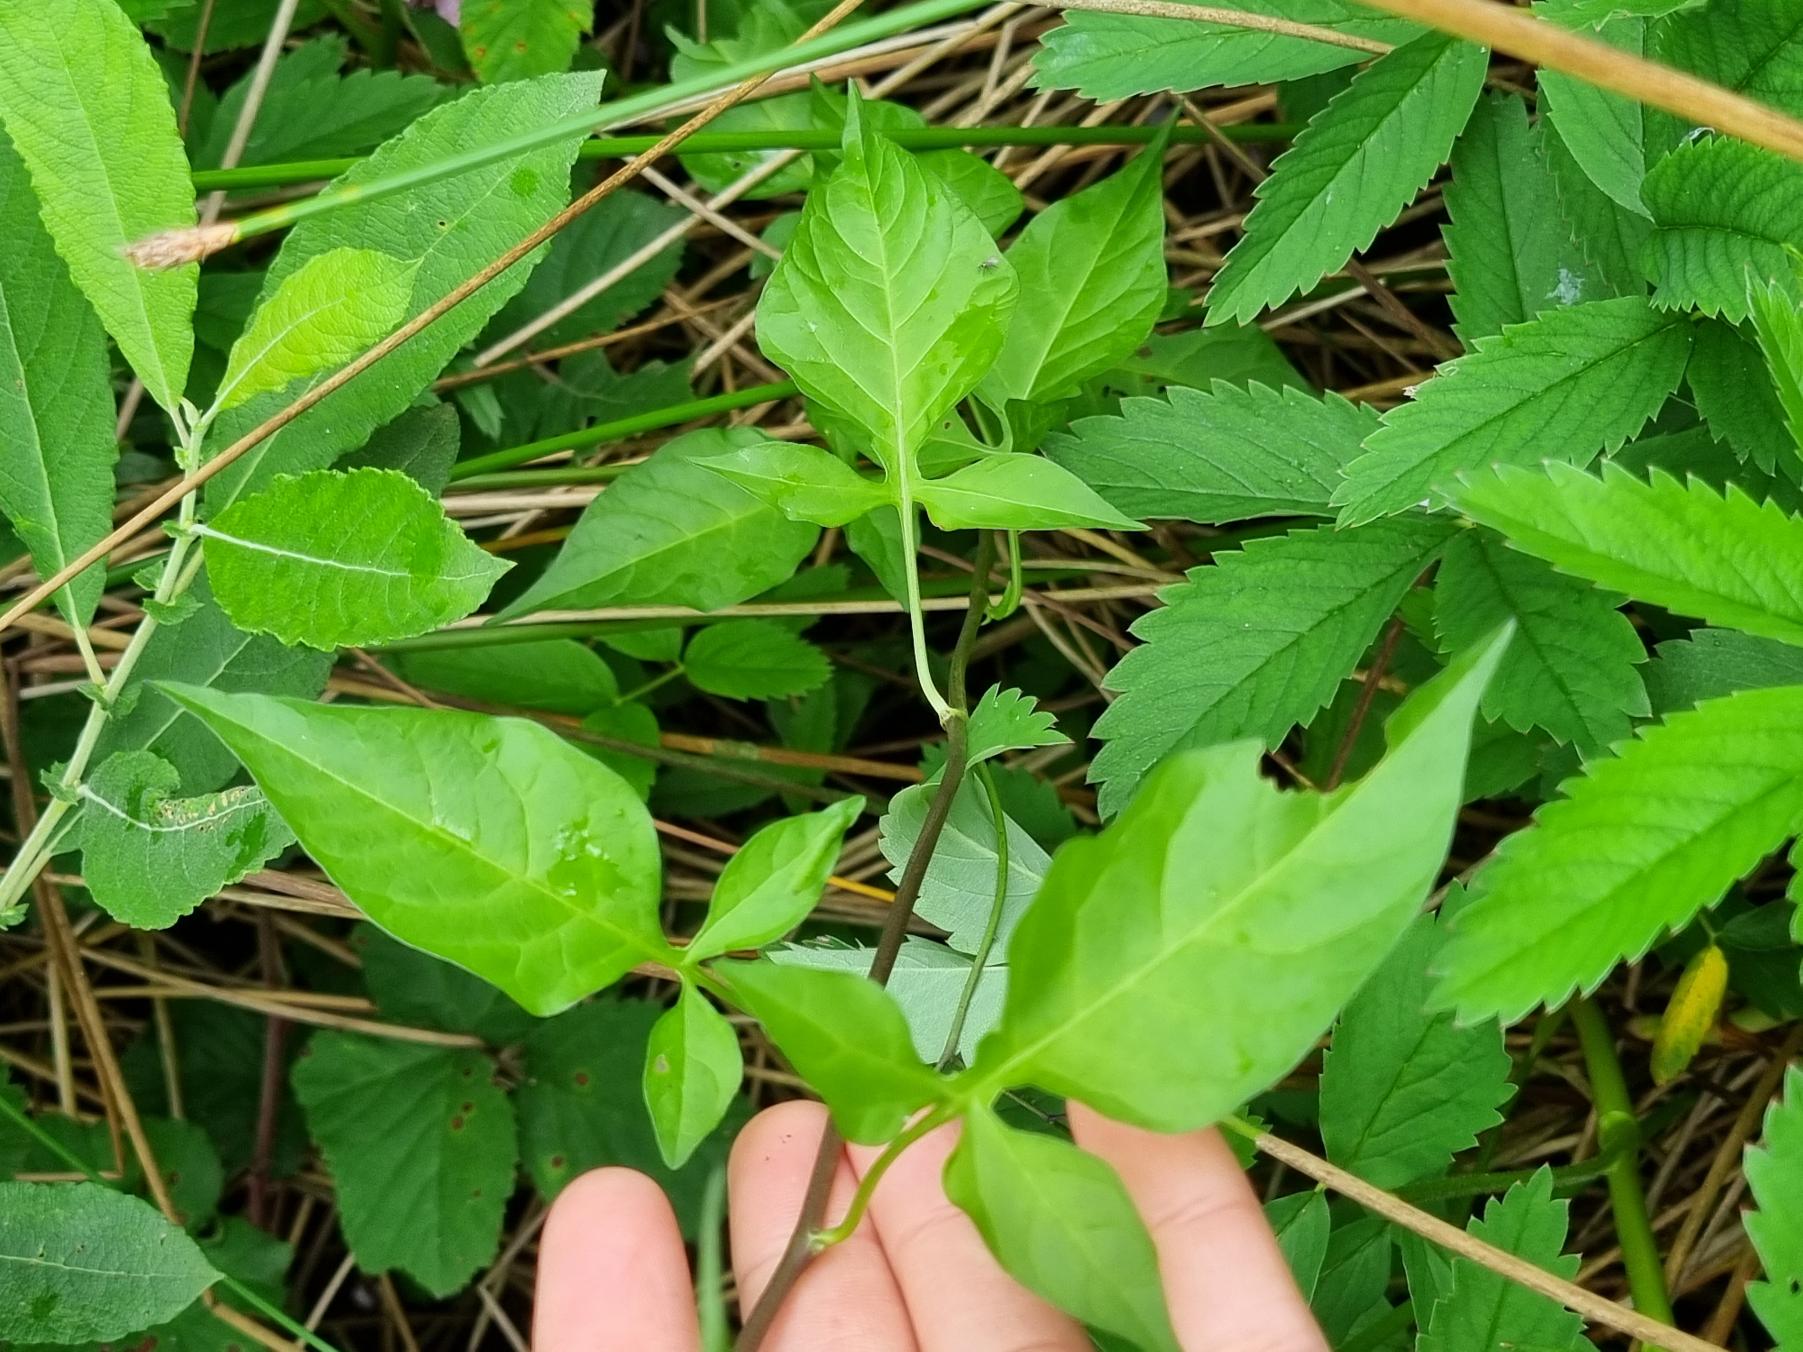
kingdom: Plantae
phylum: Tracheophyta
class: Magnoliopsida
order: Solanales
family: Solanaceae
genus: Solanum
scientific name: Solanum dulcamara
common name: Bittersød natskygge
